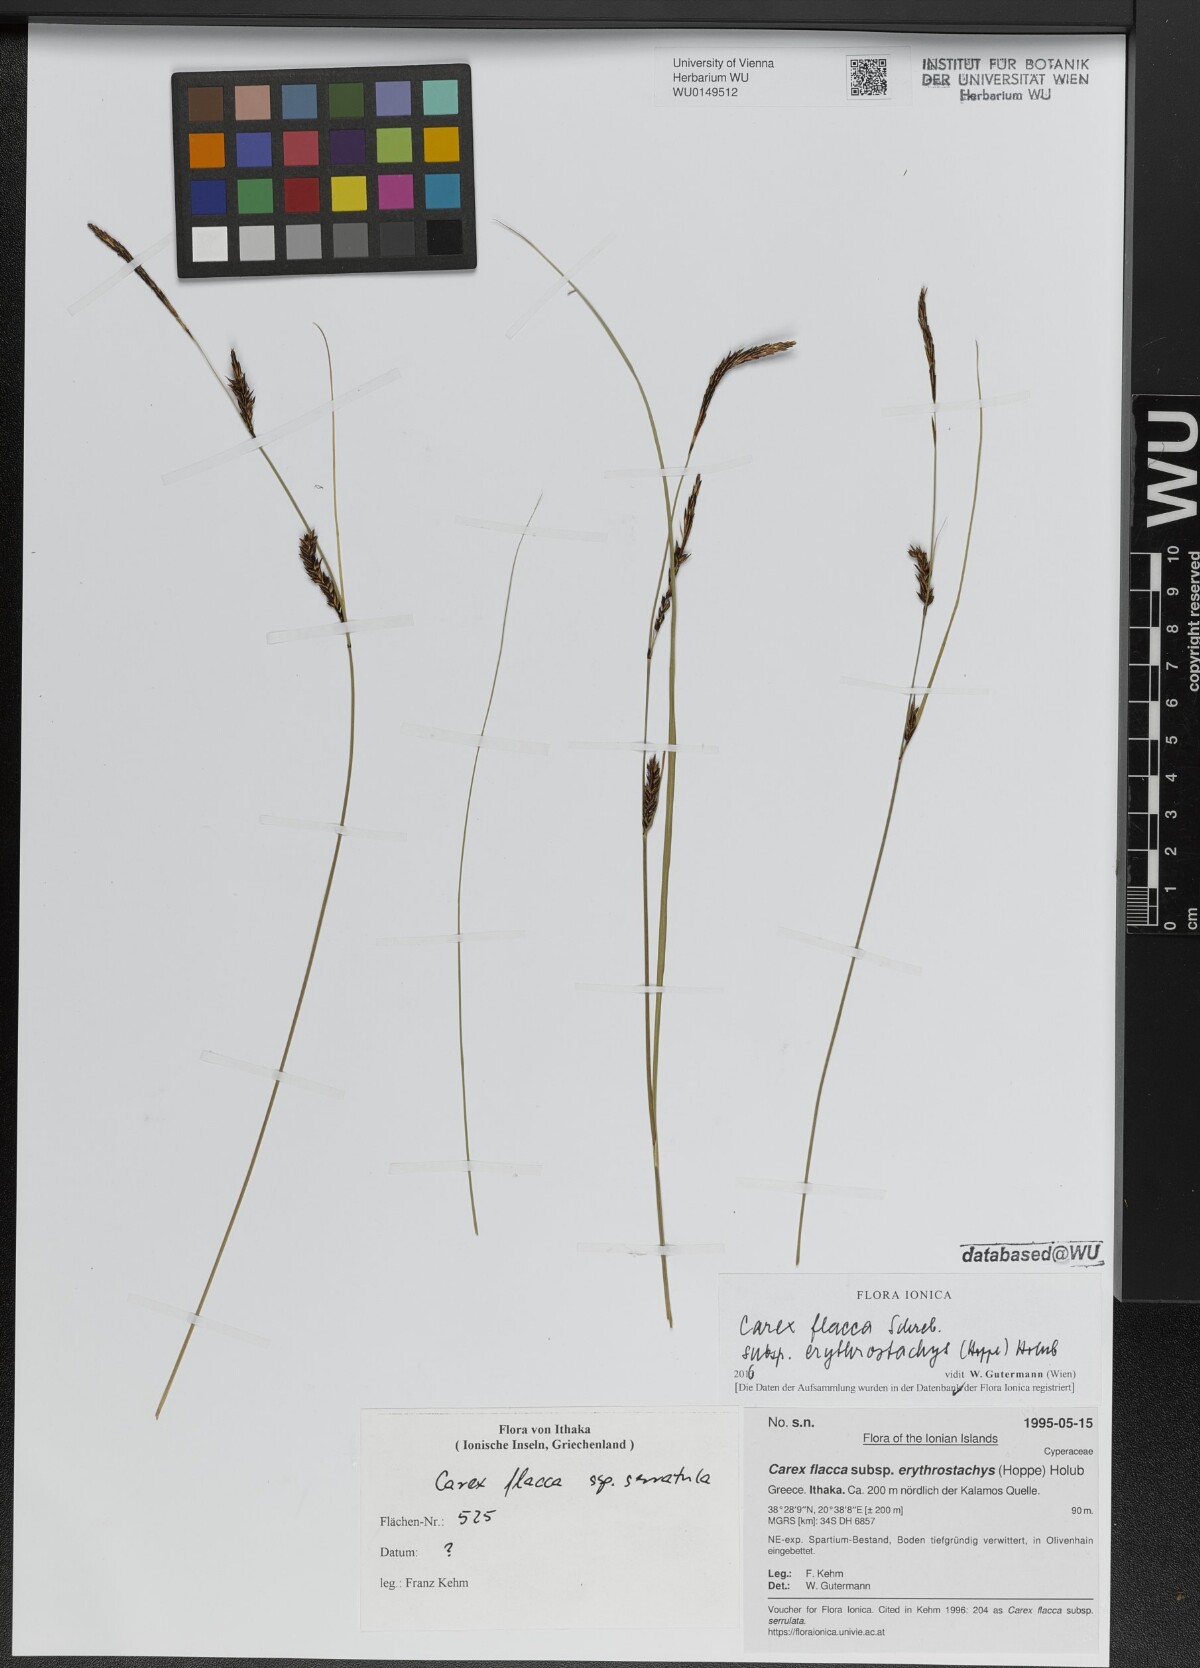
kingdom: Plantae
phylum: Tracheophyta
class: Liliopsida
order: Poales
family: Cyperaceae
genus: Carex
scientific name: Carex flacca
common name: Glaucous sedge
